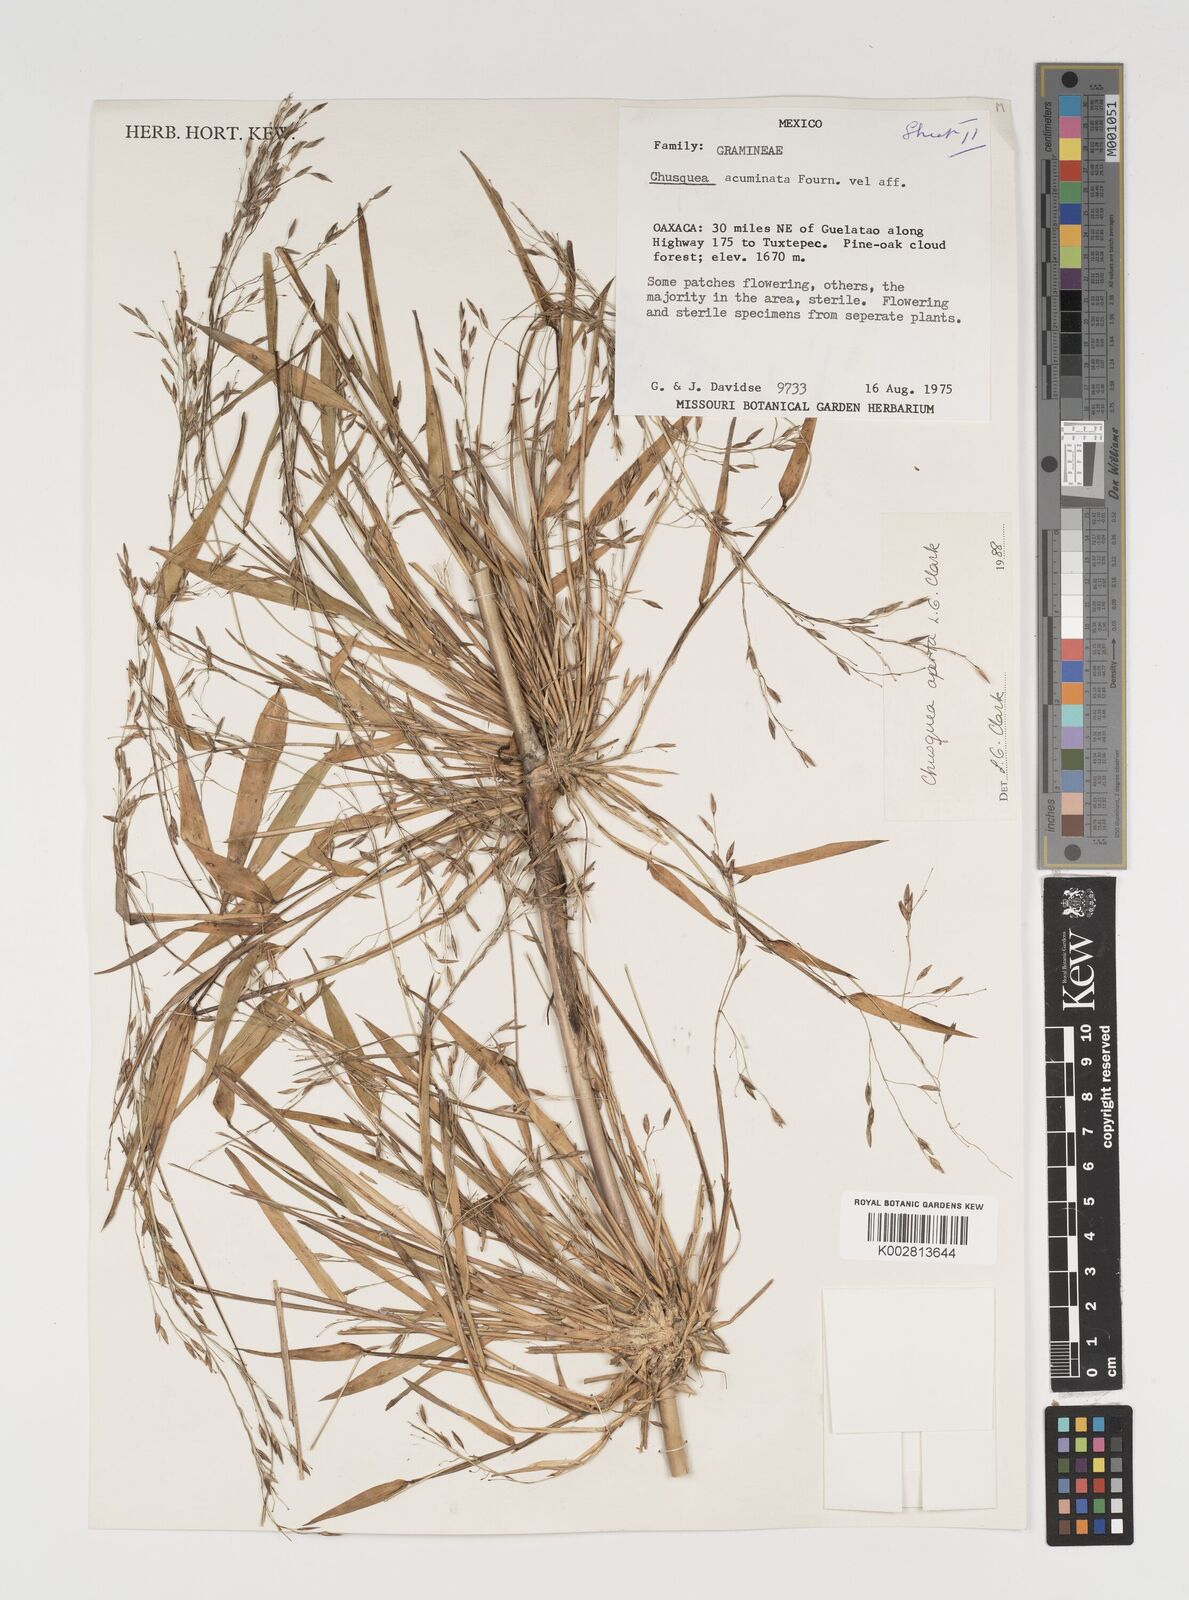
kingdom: Plantae
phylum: Tracheophyta
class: Liliopsida
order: Poales
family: Poaceae
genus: Chusquea
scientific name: Chusquea aperta
